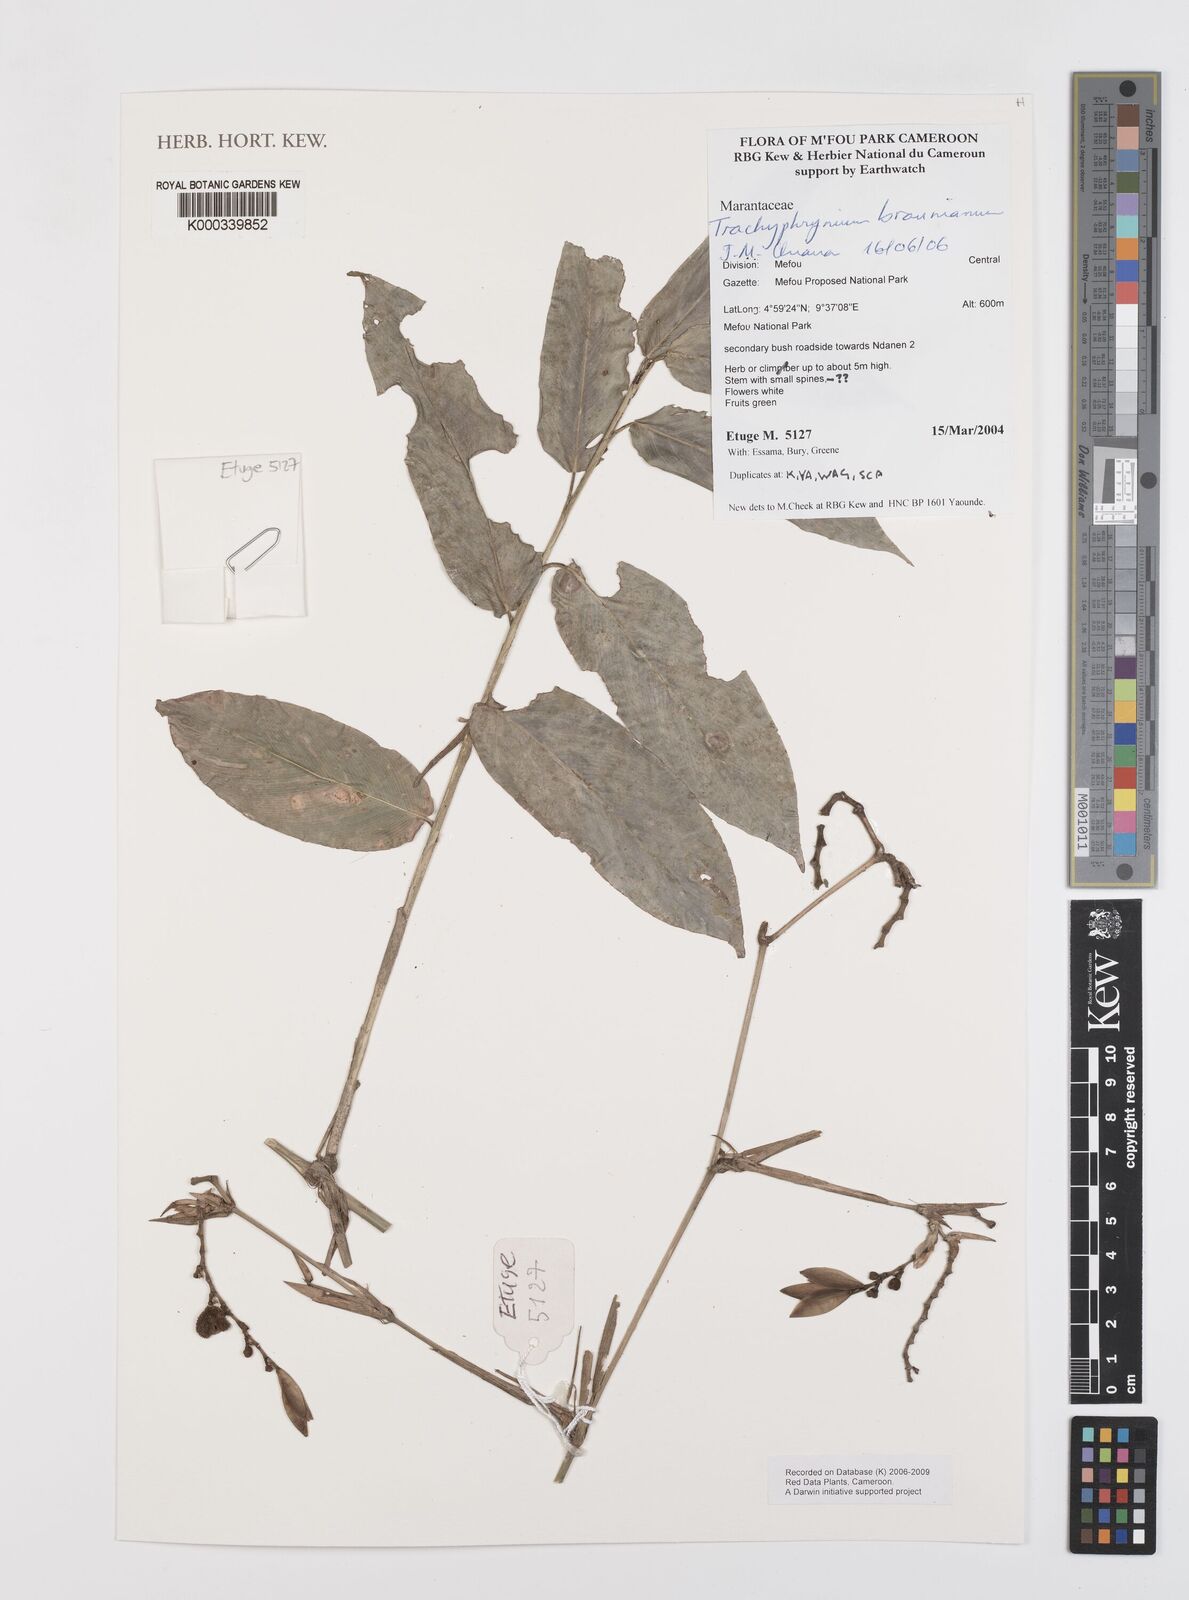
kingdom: Plantae
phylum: Tracheophyta
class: Liliopsida
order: Zingiberales
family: Marantaceae
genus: Trachyphrynium
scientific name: Trachyphrynium braunianum
